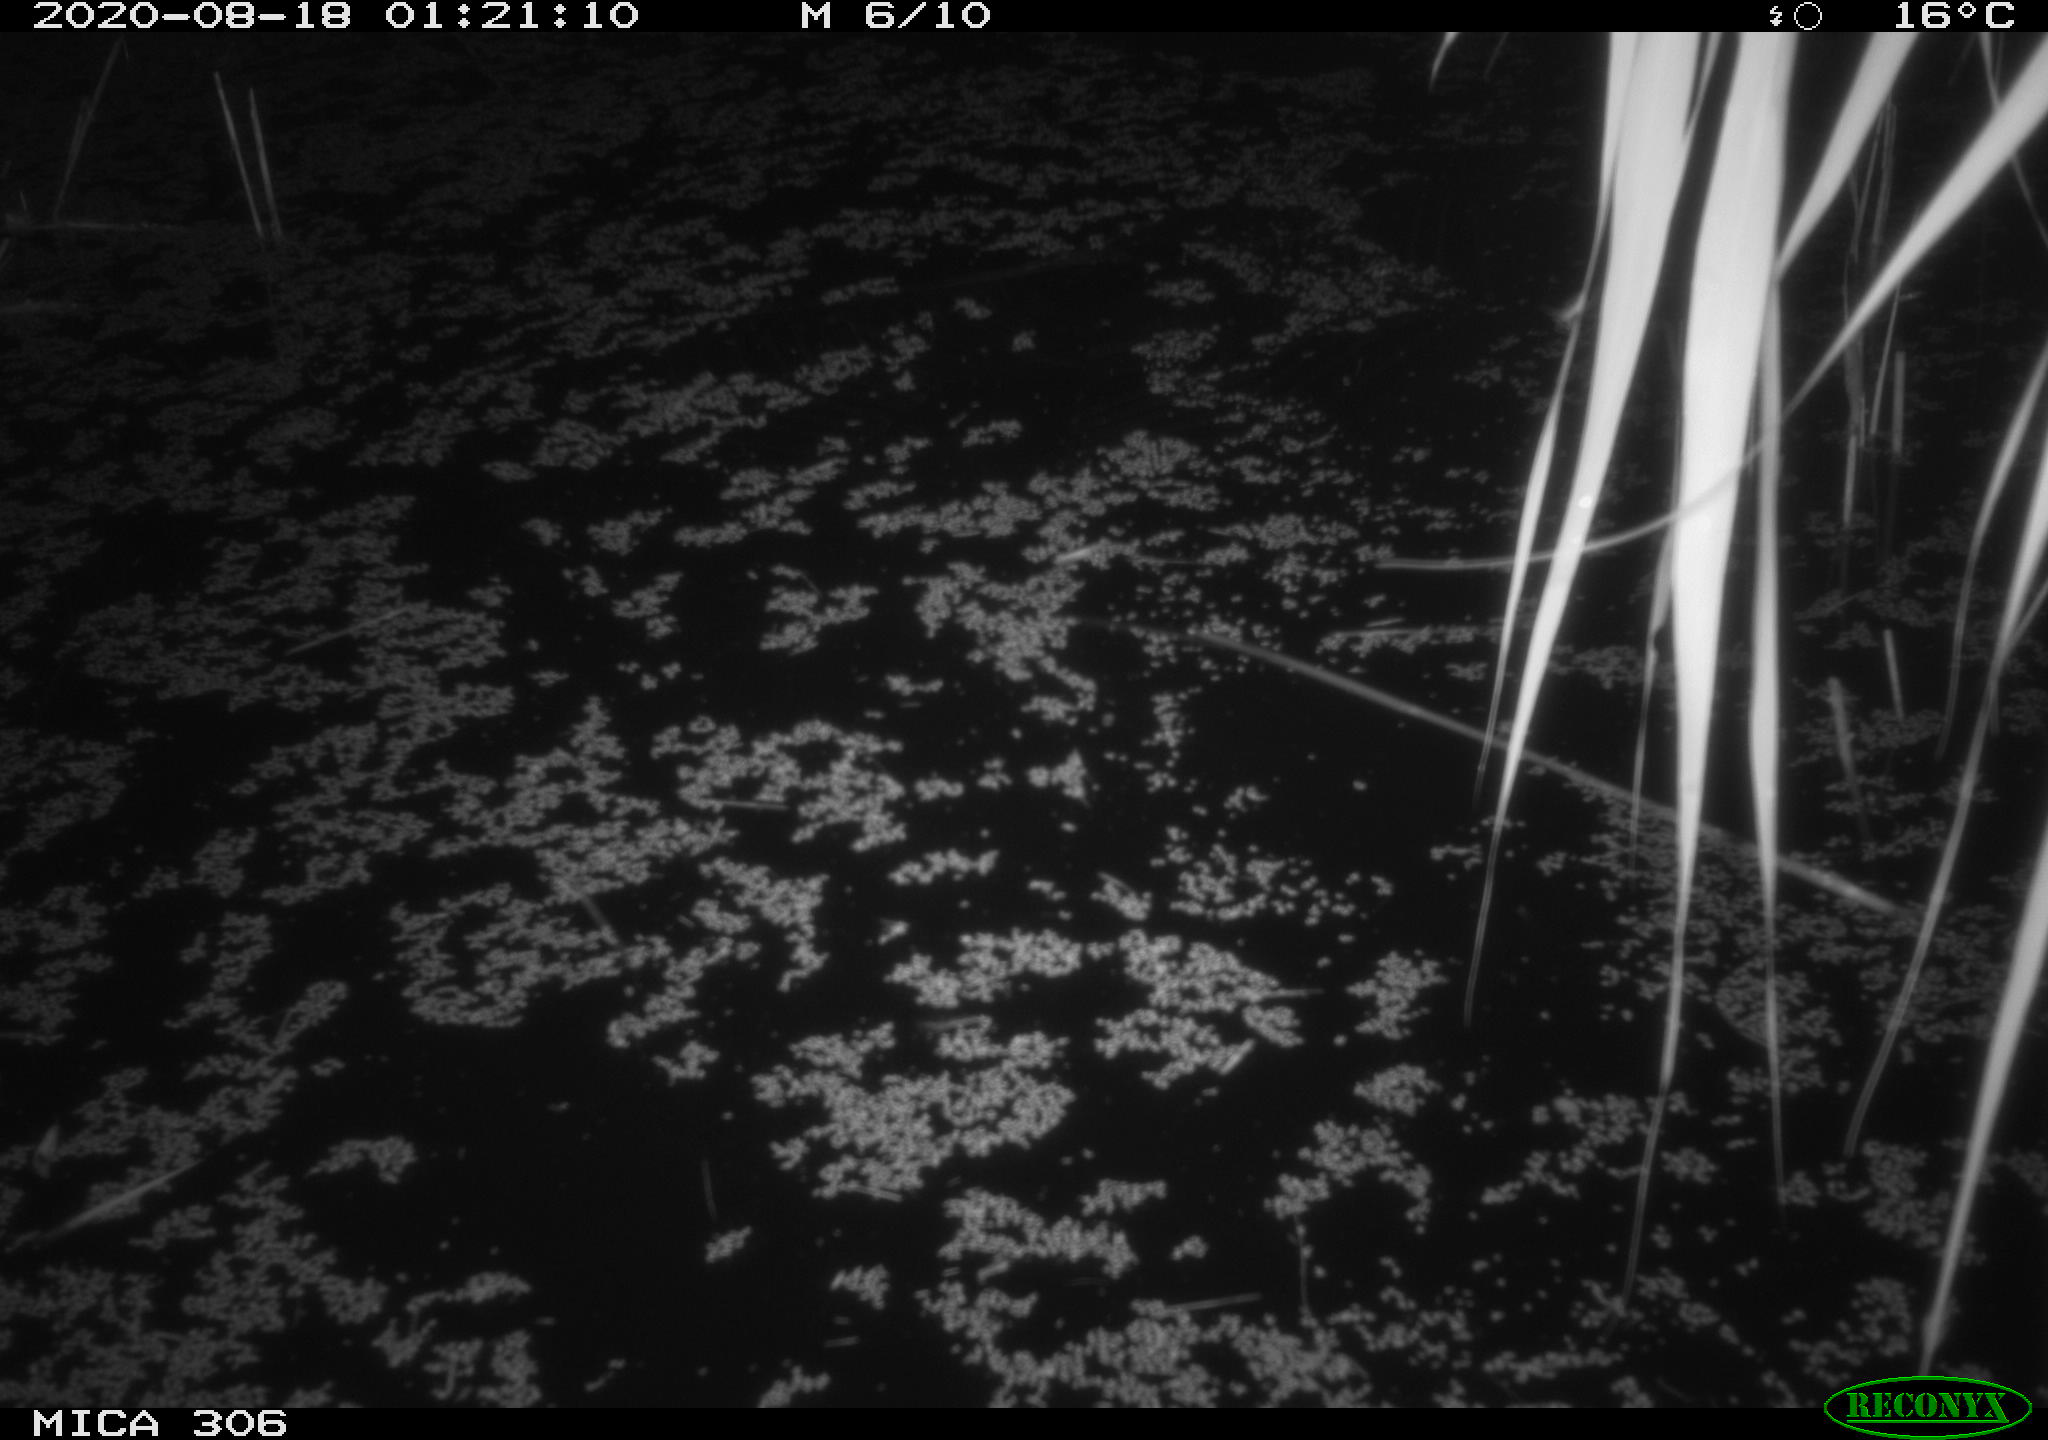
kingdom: Animalia
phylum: Chordata
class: Mammalia
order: Rodentia
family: Muridae
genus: Rattus
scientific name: Rattus norvegicus
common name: Brown rat
